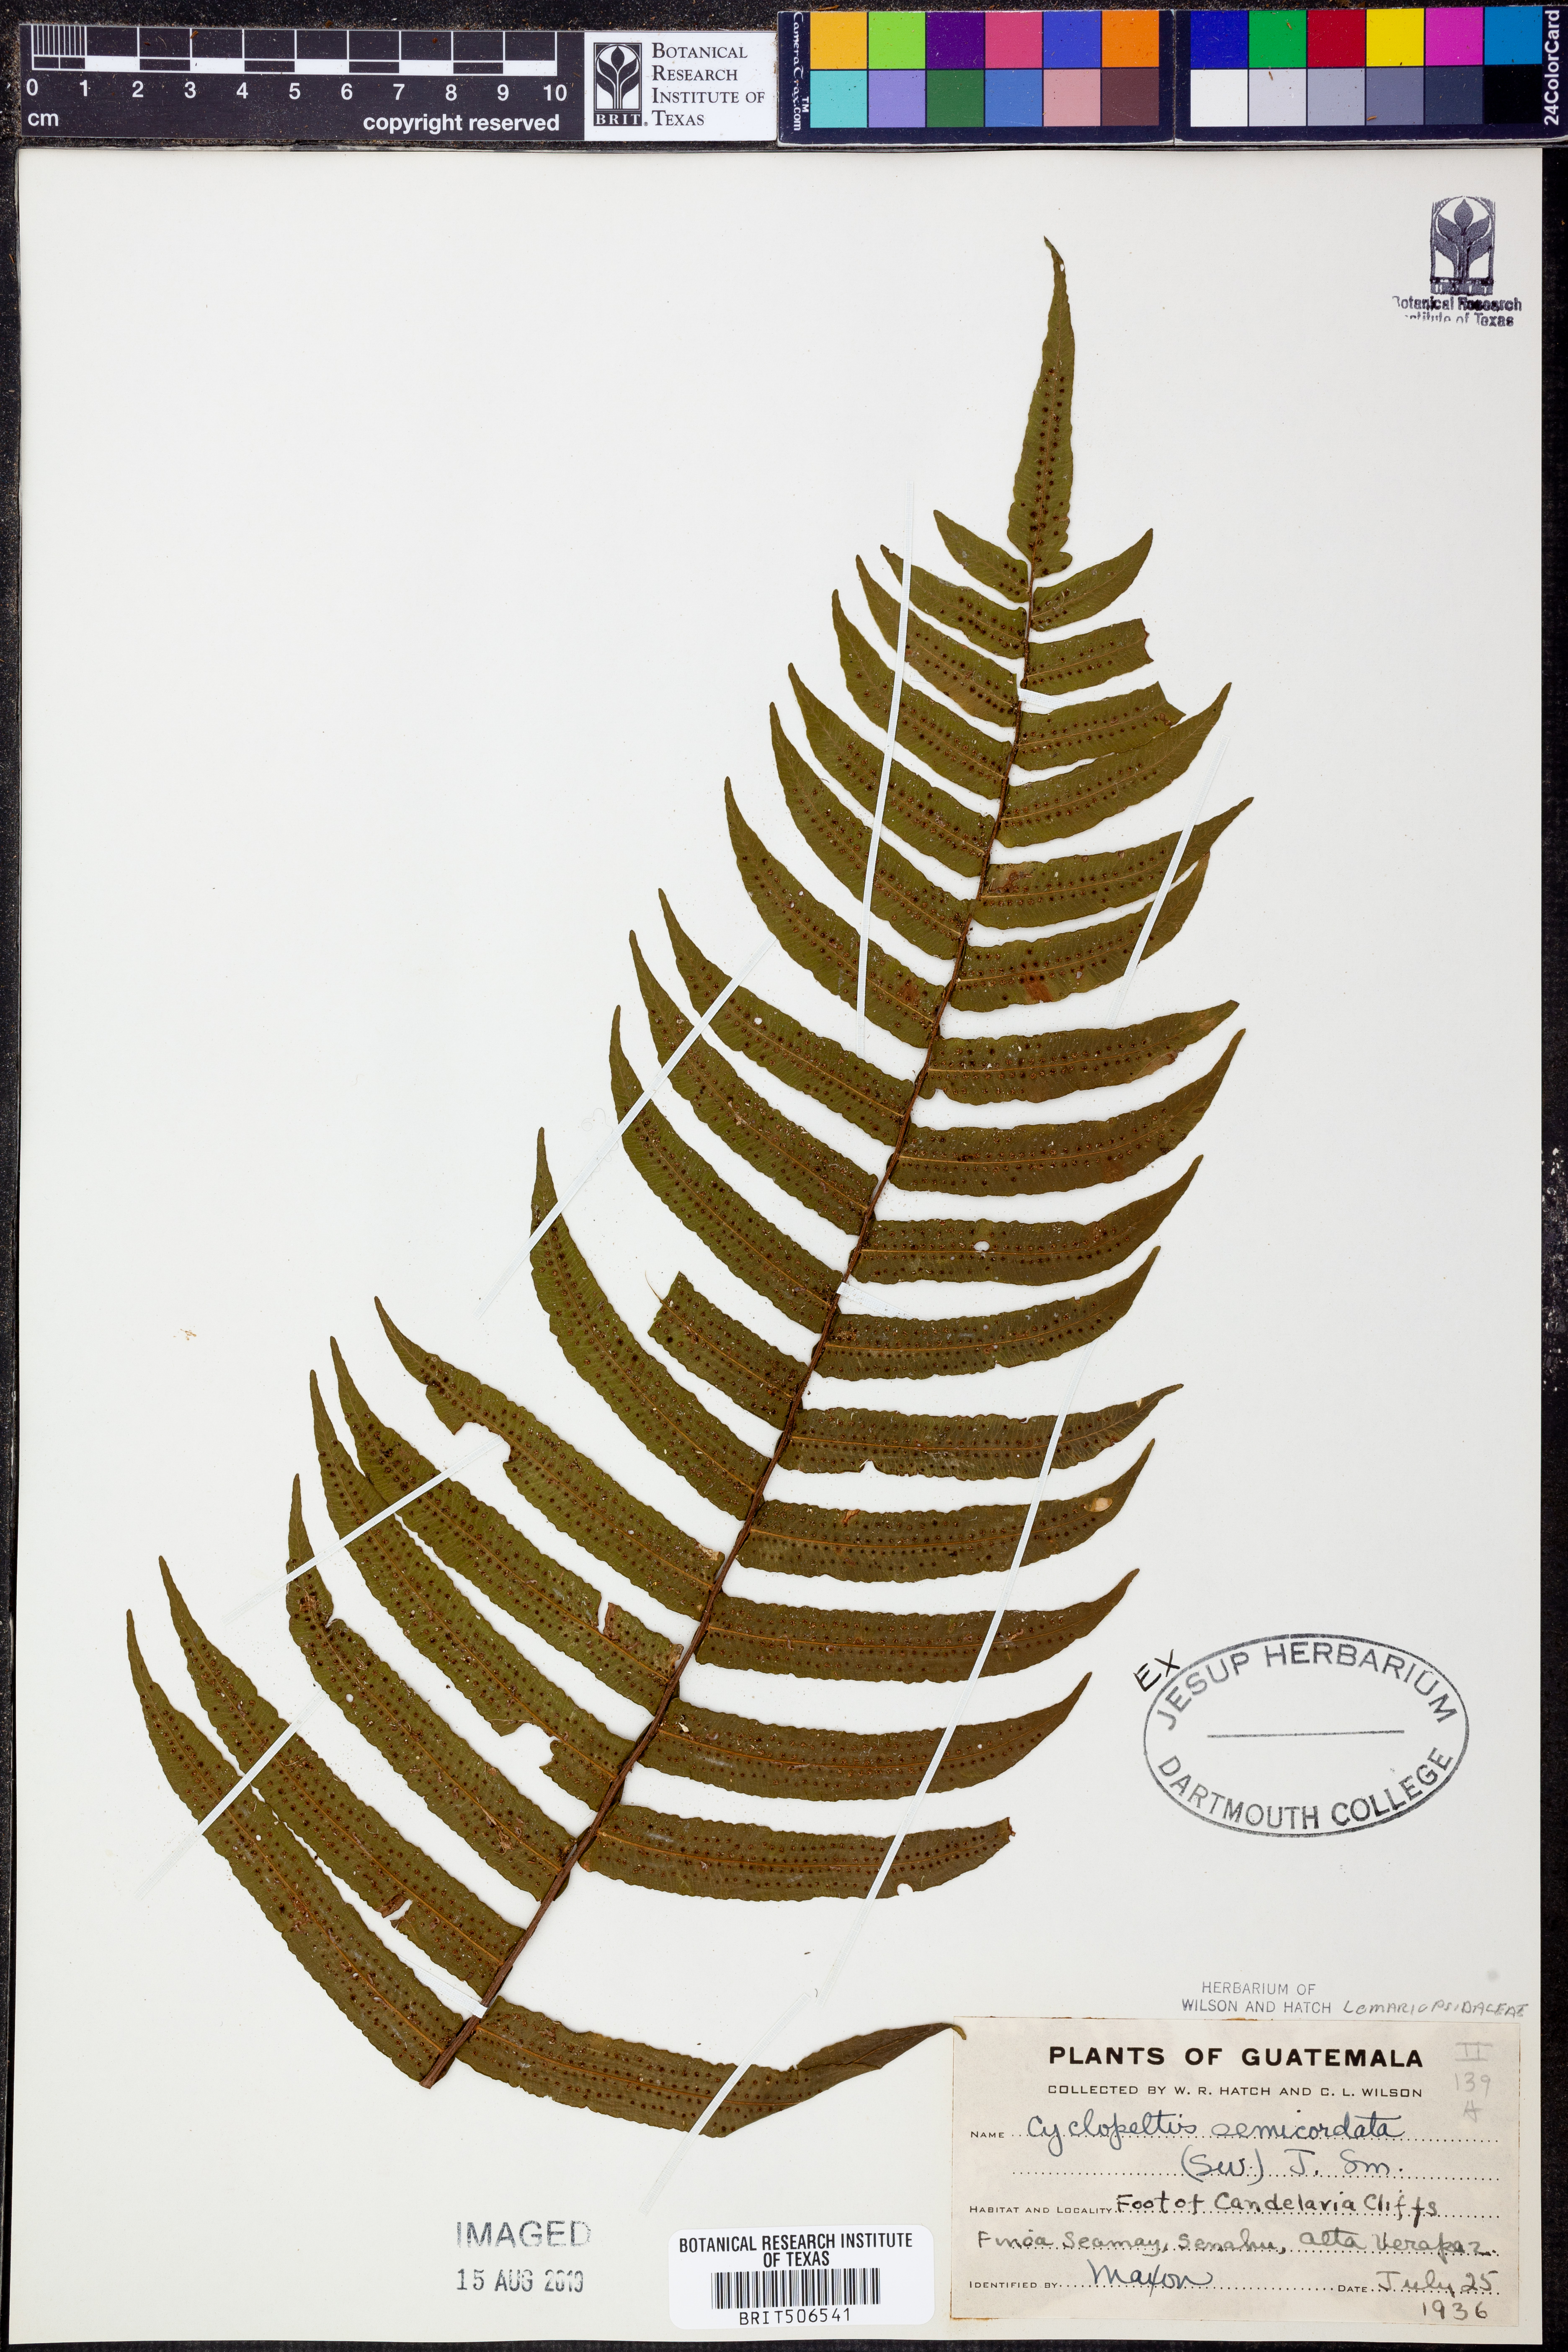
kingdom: Plantae
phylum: Tracheophyta
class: Polypodiopsida
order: Polypodiales
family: Lomariopsidaceae
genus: Cyclopeltis
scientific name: Cyclopeltis semicordata
